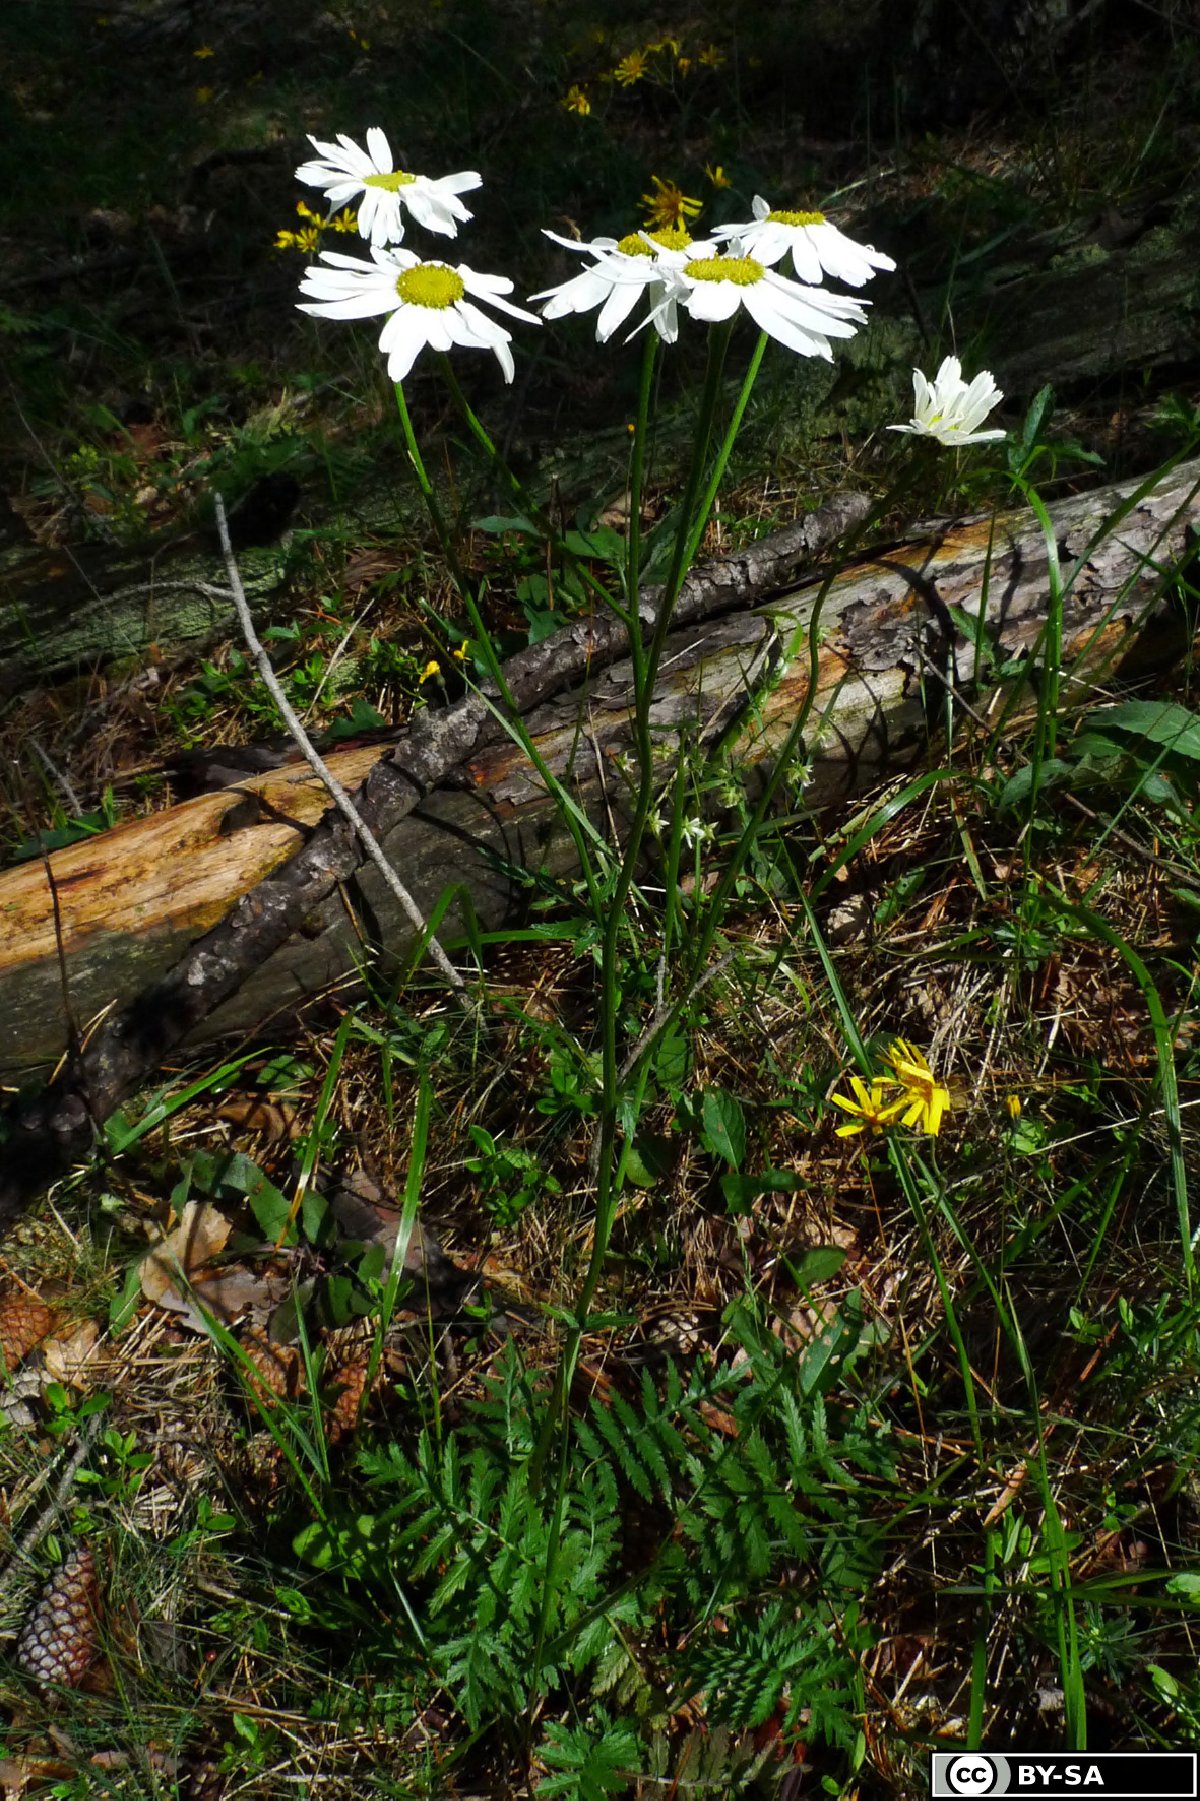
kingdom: Plantae
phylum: Tracheophyta
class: Magnoliopsida
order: Asterales
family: Asteraceae
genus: Tanacetum
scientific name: Tanacetum corymbosum
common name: Scentless feverfew
